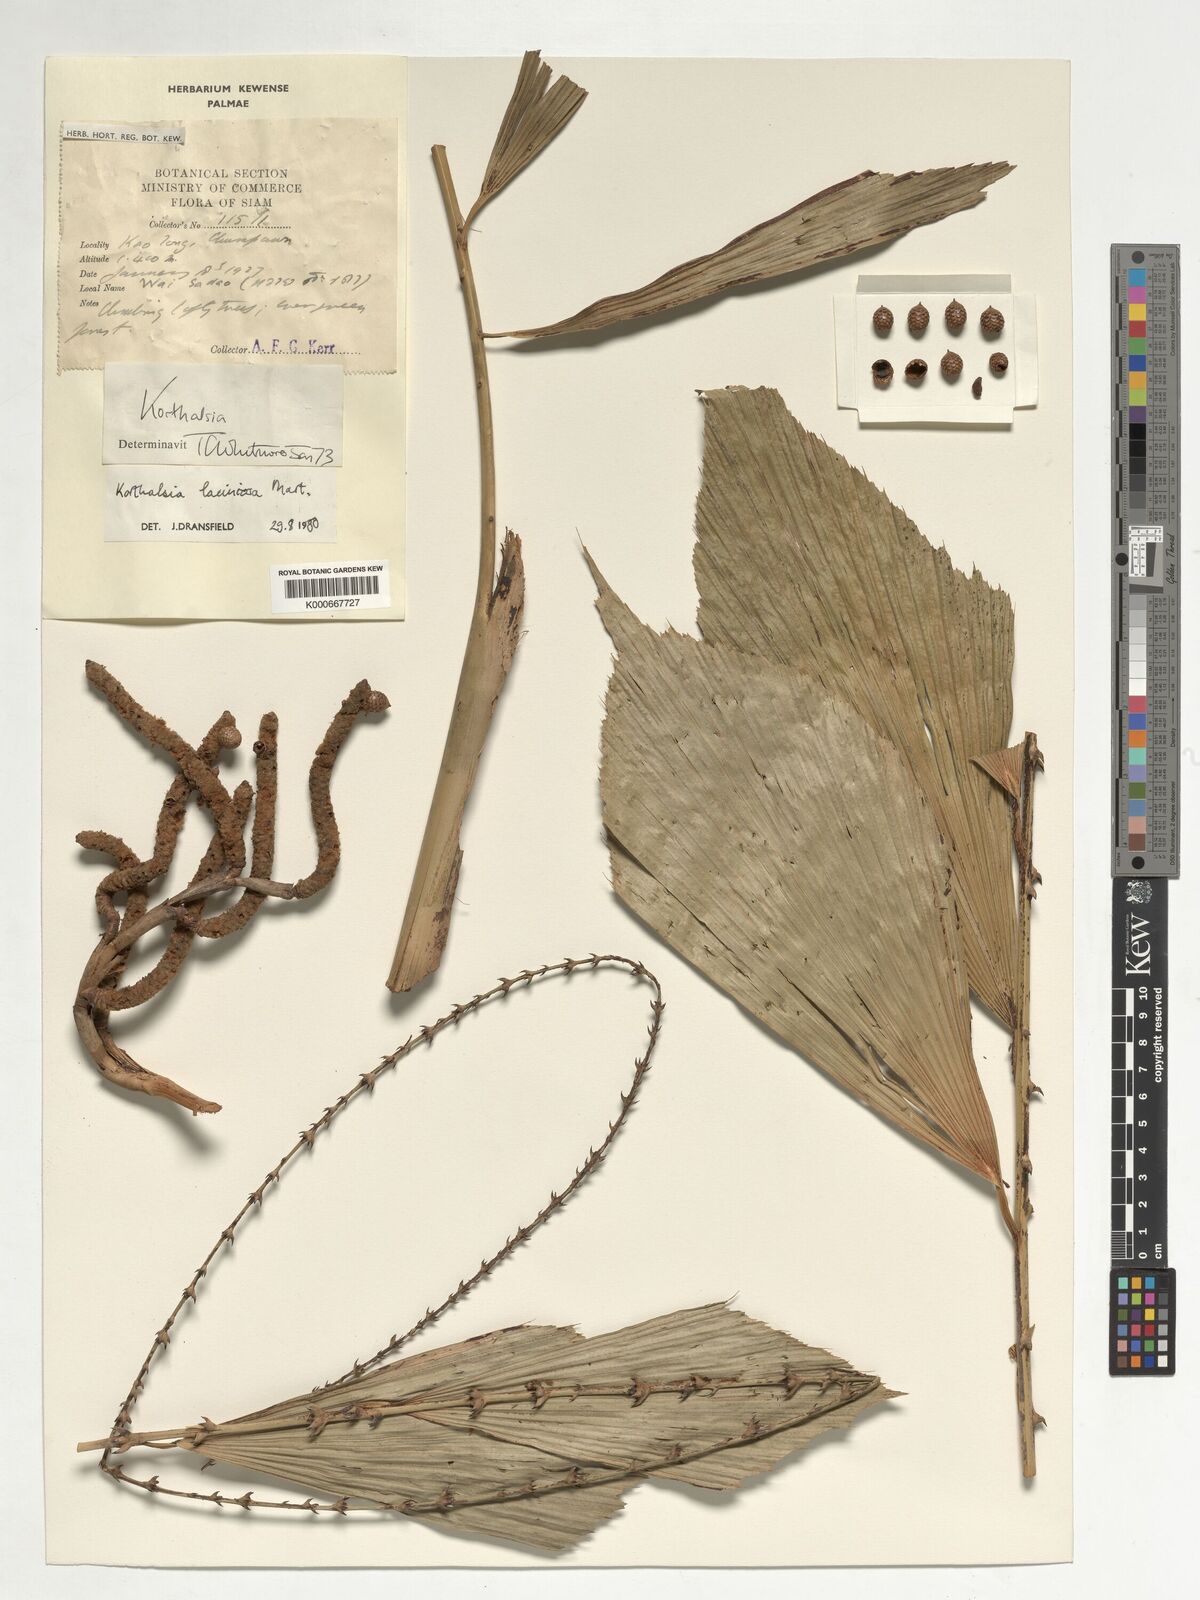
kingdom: Plantae
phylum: Tracheophyta
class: Liliopsida
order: Arecales
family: Arecaceae
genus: Korthalsia
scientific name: Korthalsia laciniosa
